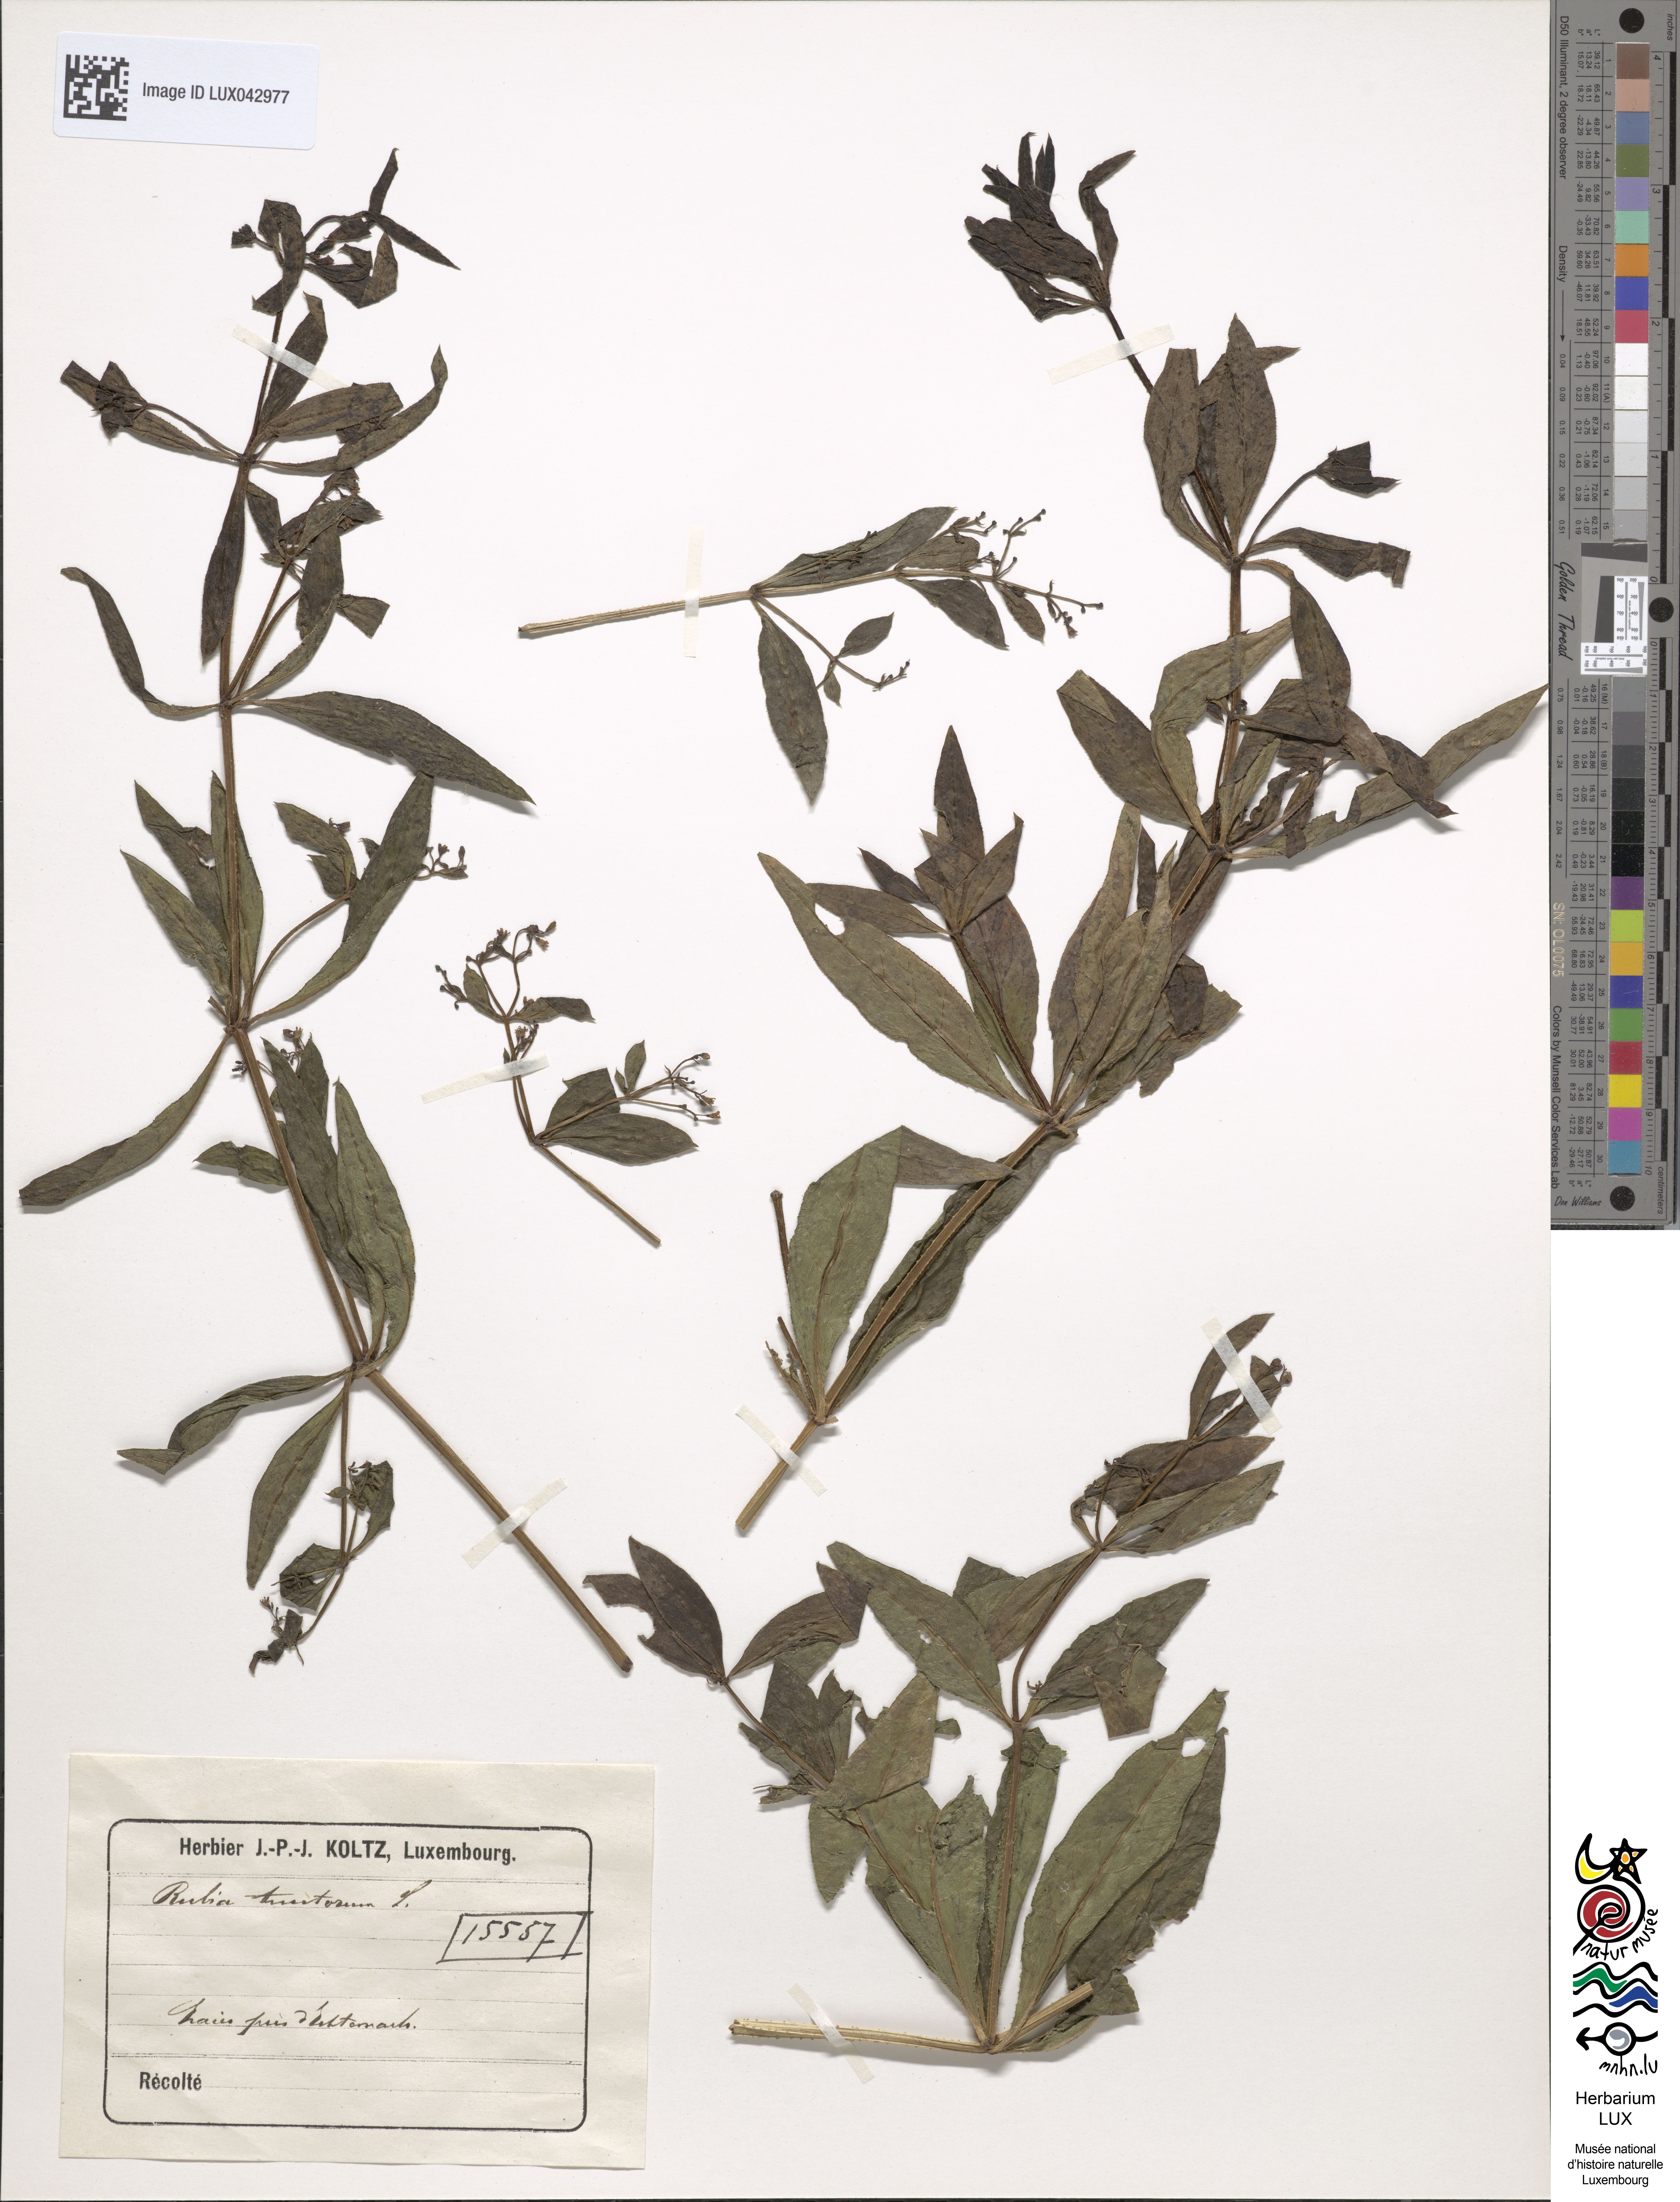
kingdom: Plantae
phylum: Tracheophyta
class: Magnoliopsida
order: Gentianales
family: Rubiaceae
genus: Rubia
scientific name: Rubia tinctorum
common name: Dyer's madder
